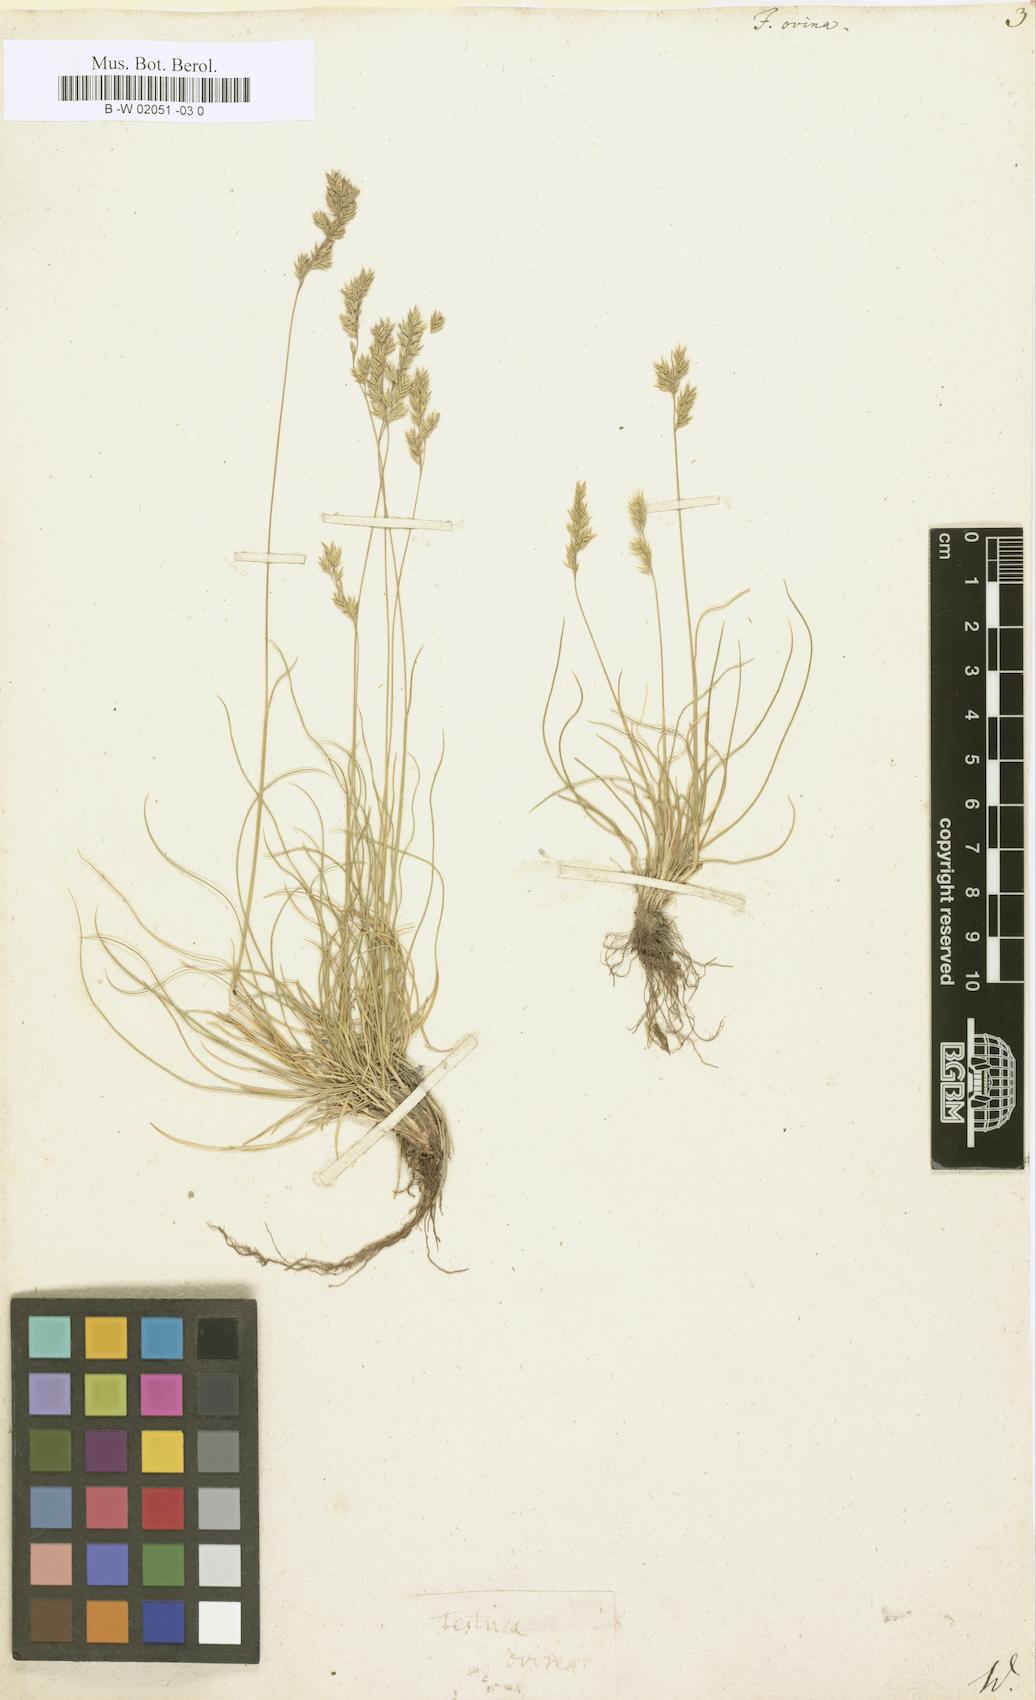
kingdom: Plantae
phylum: Tracheophyta
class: Liliopsida
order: Poales
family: Poaceae
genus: Festuca
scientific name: Festuca ovina
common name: Sheep fescue
